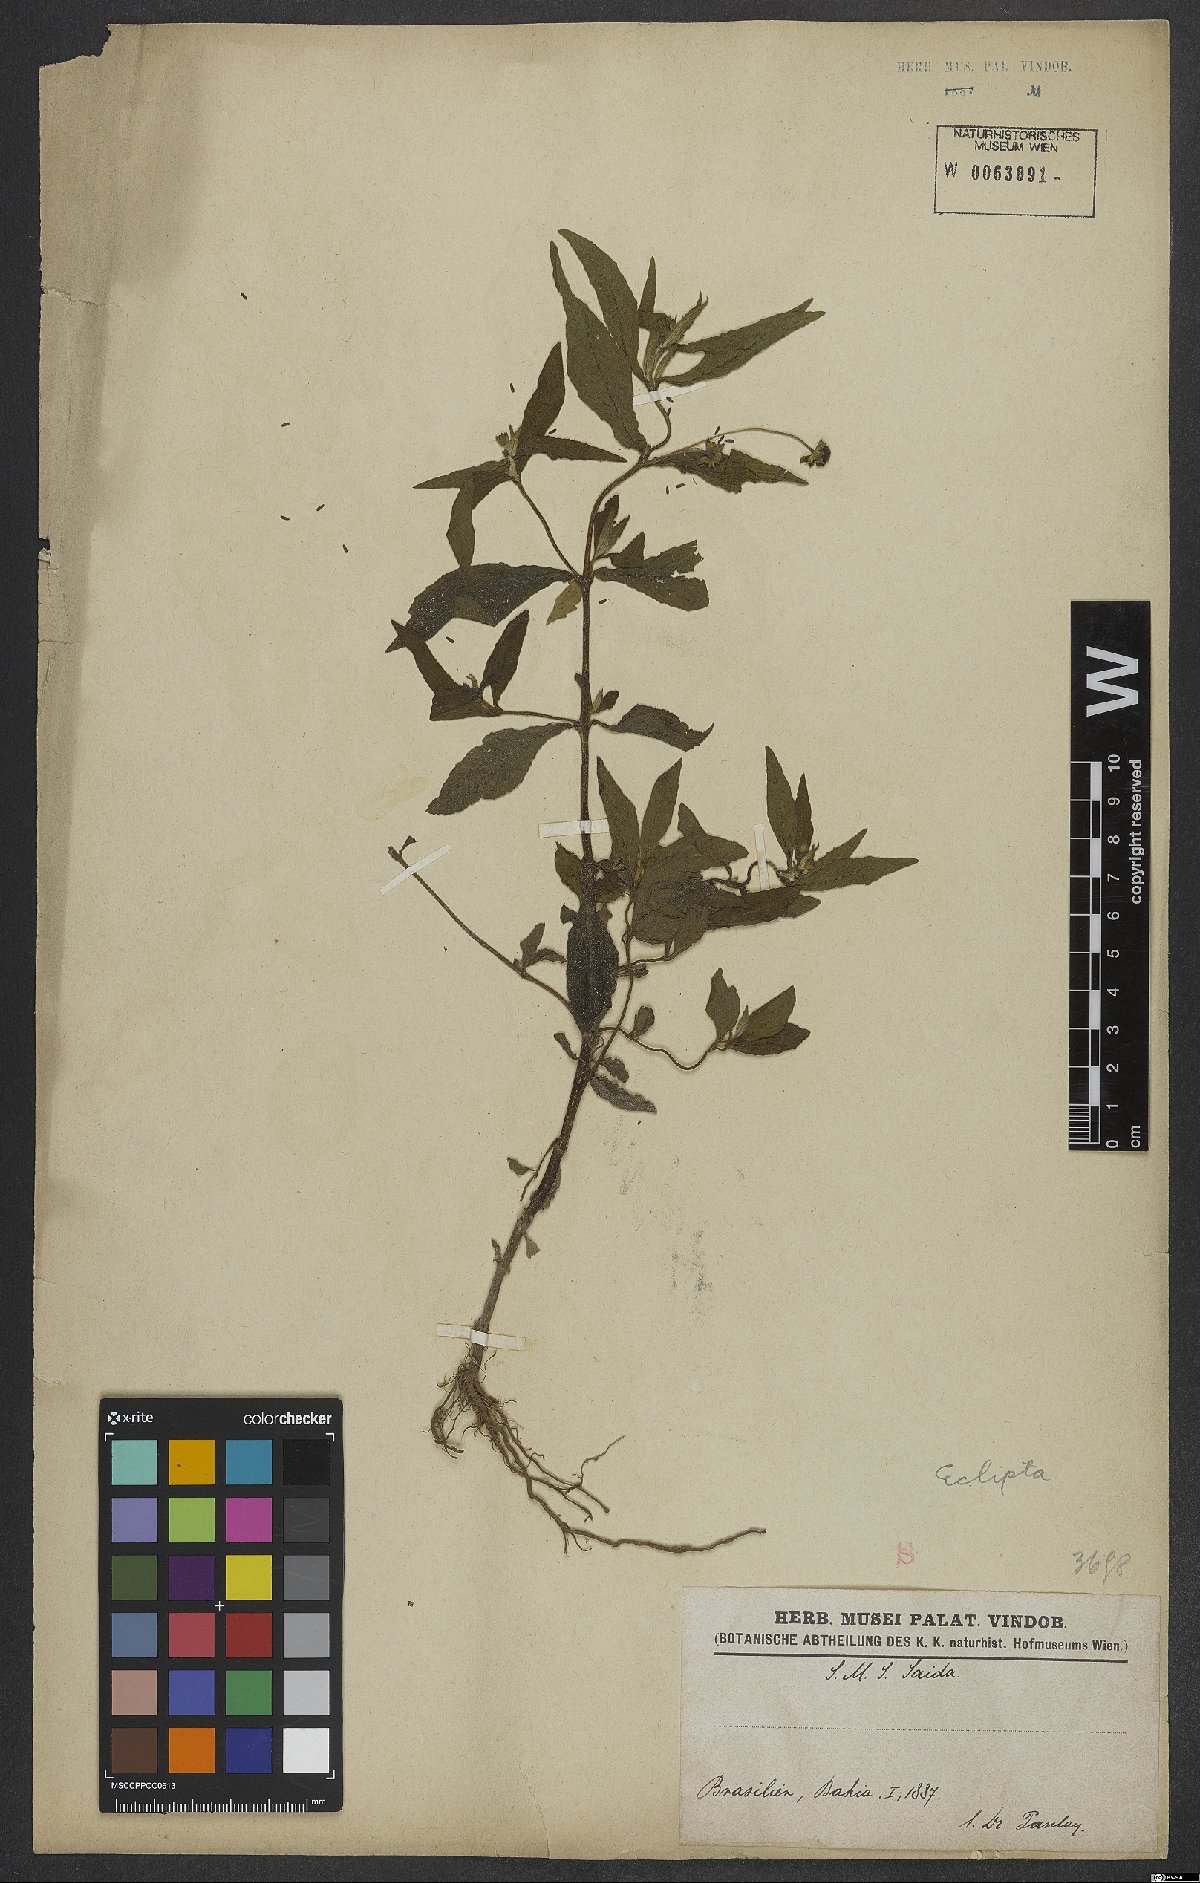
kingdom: Plantae
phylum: Tracheophyta
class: Magnoliopsida
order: Asterales
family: Asteraceae
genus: Eclipta
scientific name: Eclipta alba
